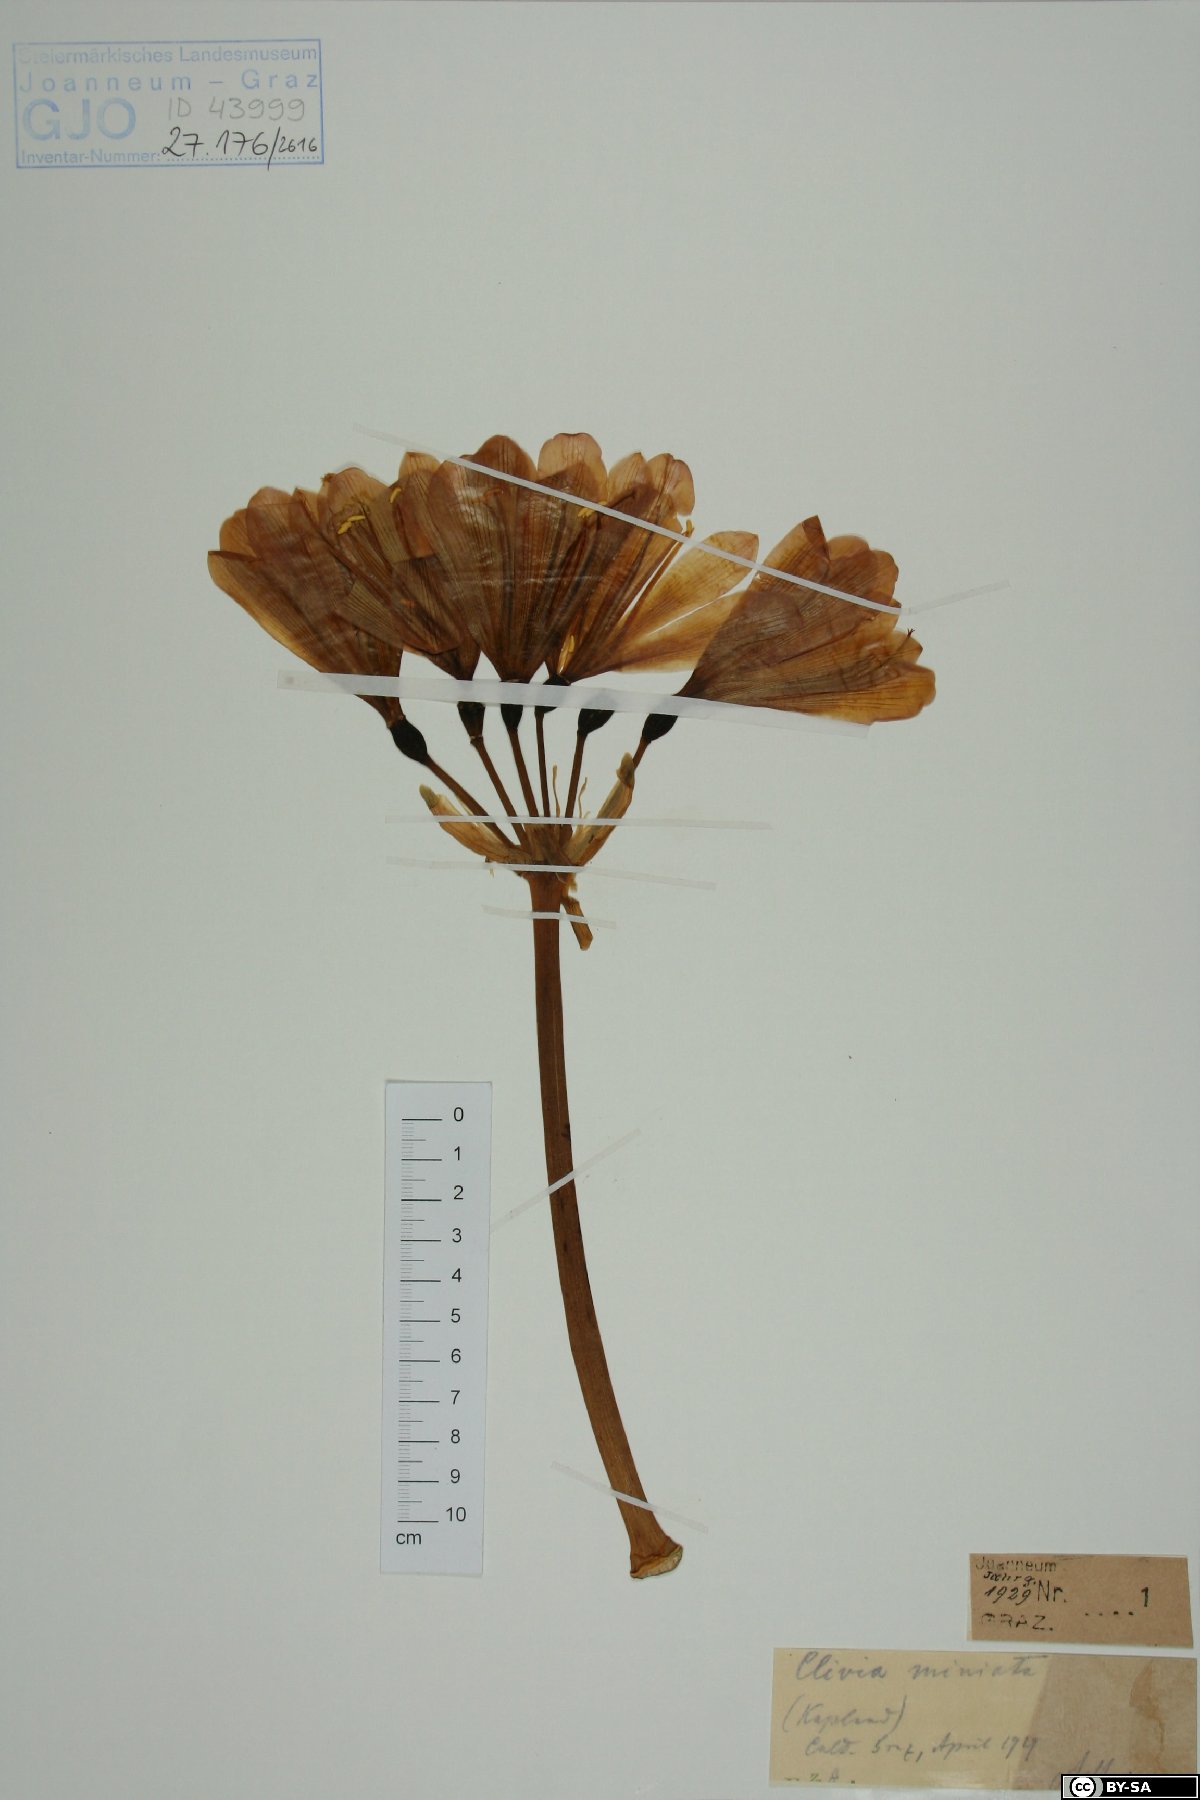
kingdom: Plantae
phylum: Tracheophyta
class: Liliopsida
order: Asparagales
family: Amaryllidaceae
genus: Clivia
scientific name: Clivia miniata
